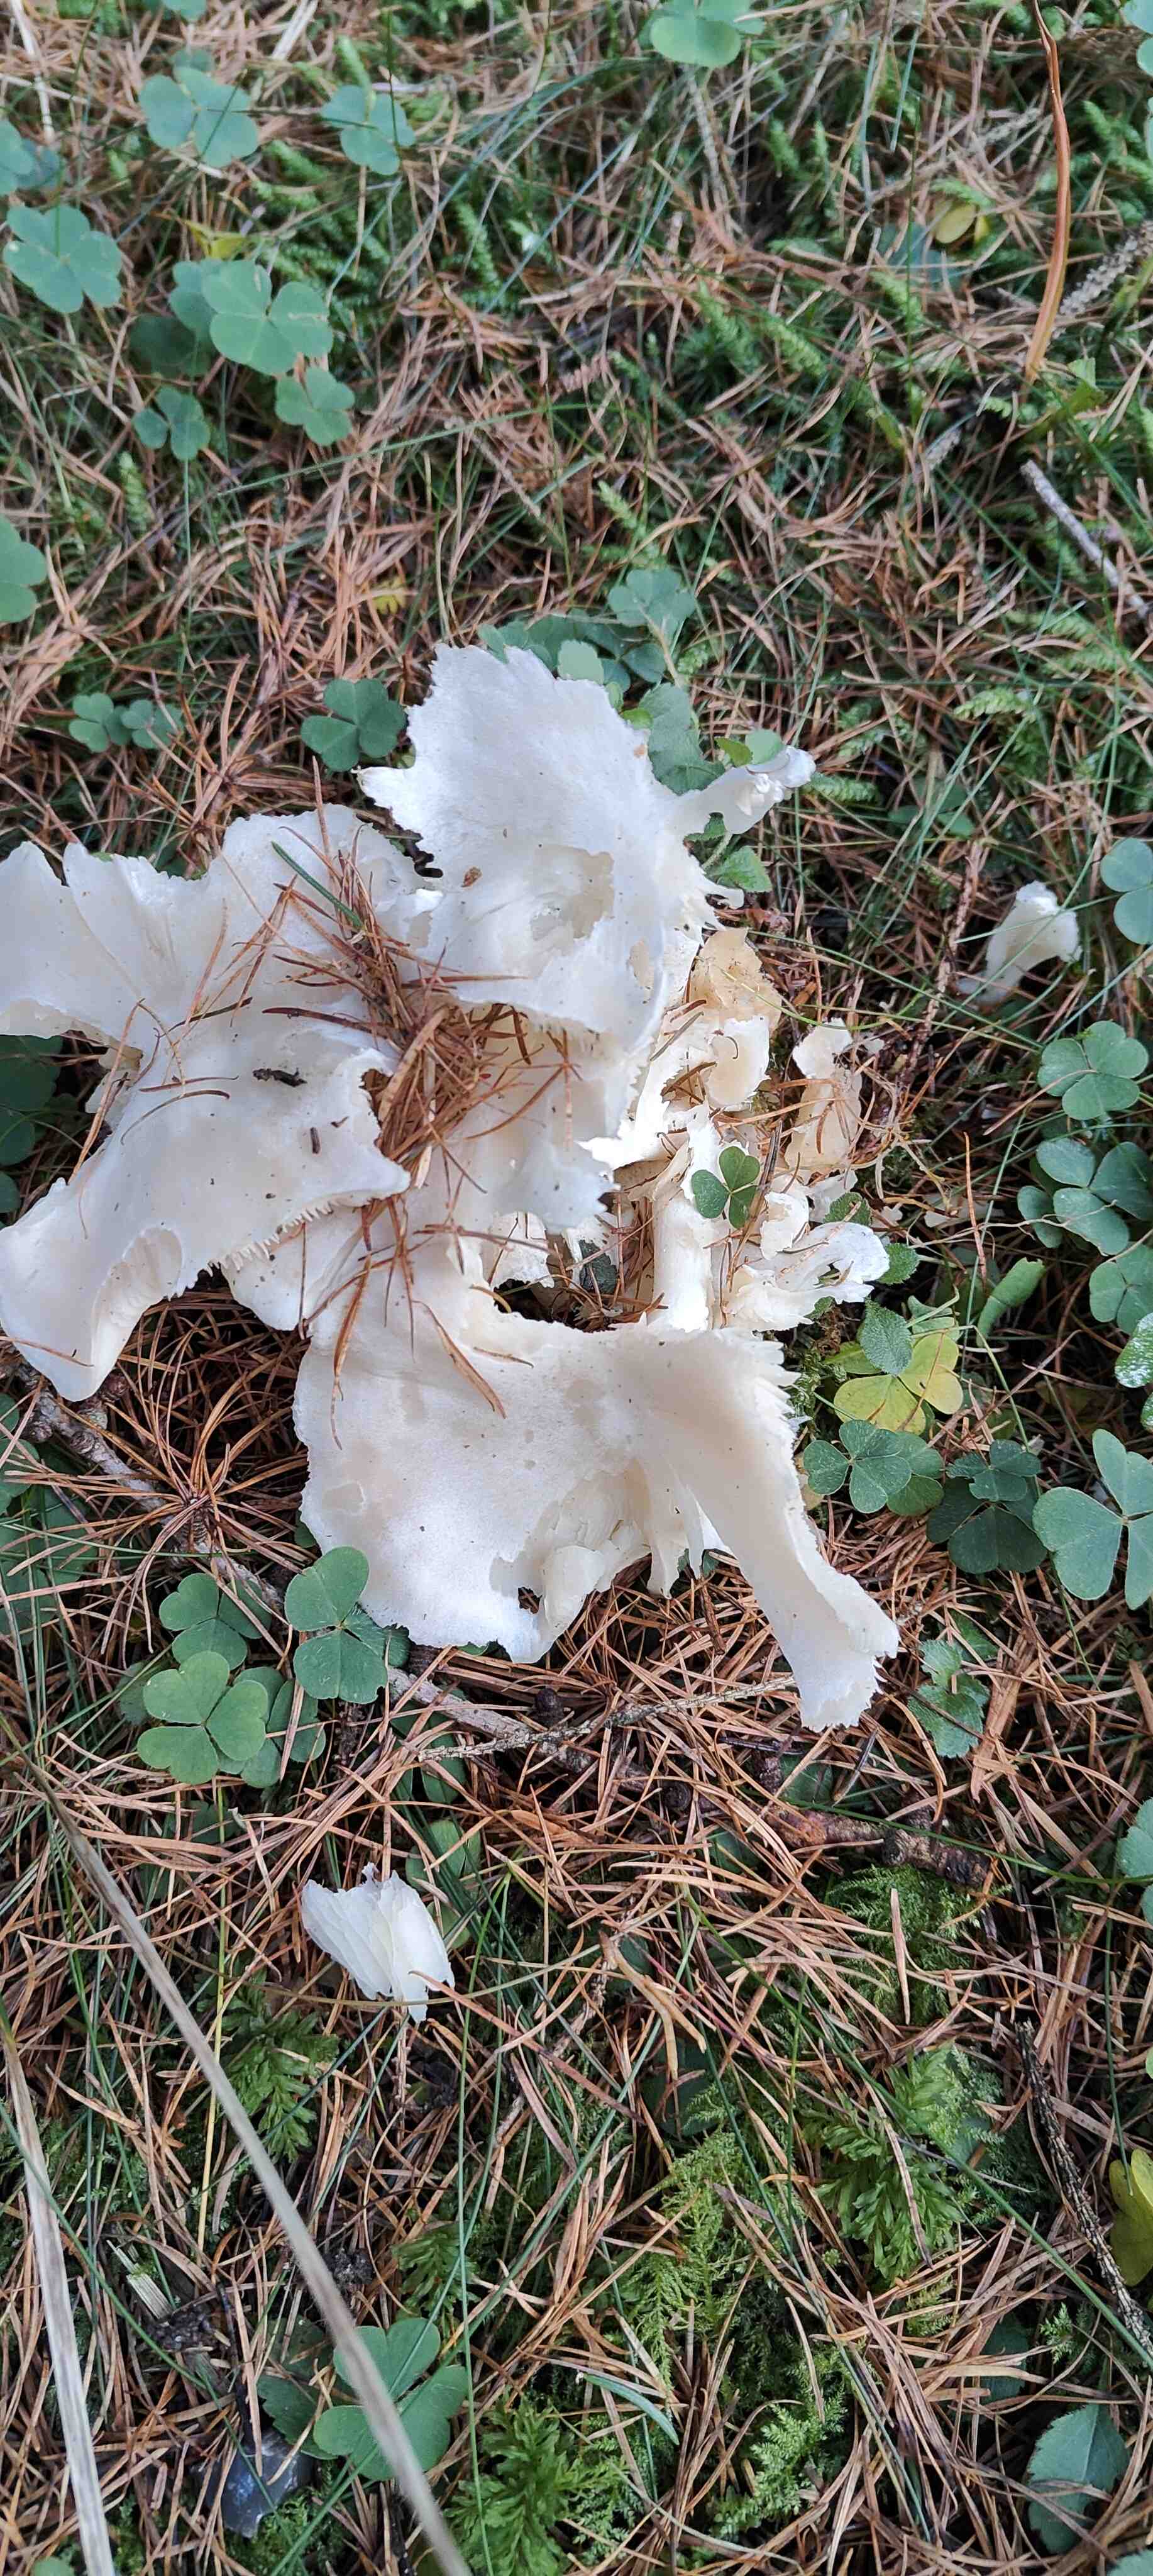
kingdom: Fungi
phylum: Basidiomycota
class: Agaricomycetes
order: Agaricales
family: Tricholomataceae
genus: Leucocybe
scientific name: Leucocybe connata
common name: knippe-tragthat
